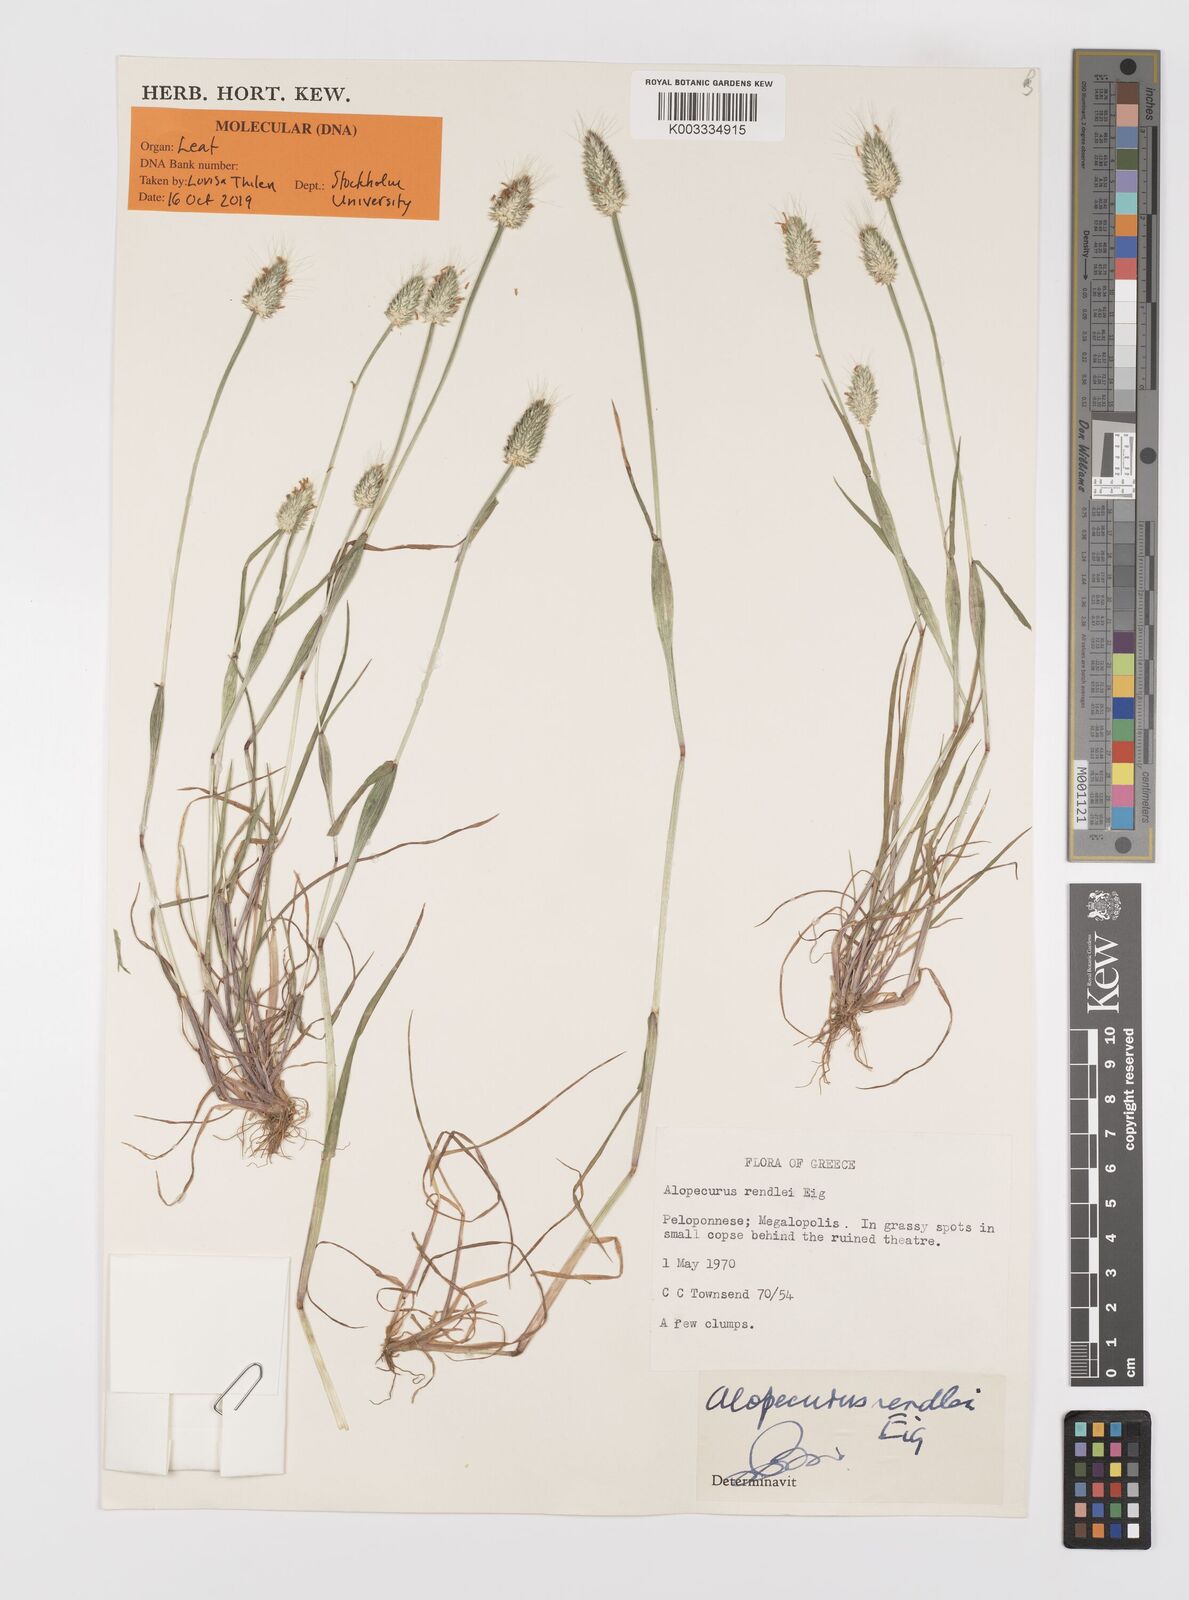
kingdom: Plantae
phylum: Tracheophyta
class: Liliopsida
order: Poales
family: Poaceae
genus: Alopecurus
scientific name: Alopecurus rendlei
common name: Rendle's meadow foxtail
